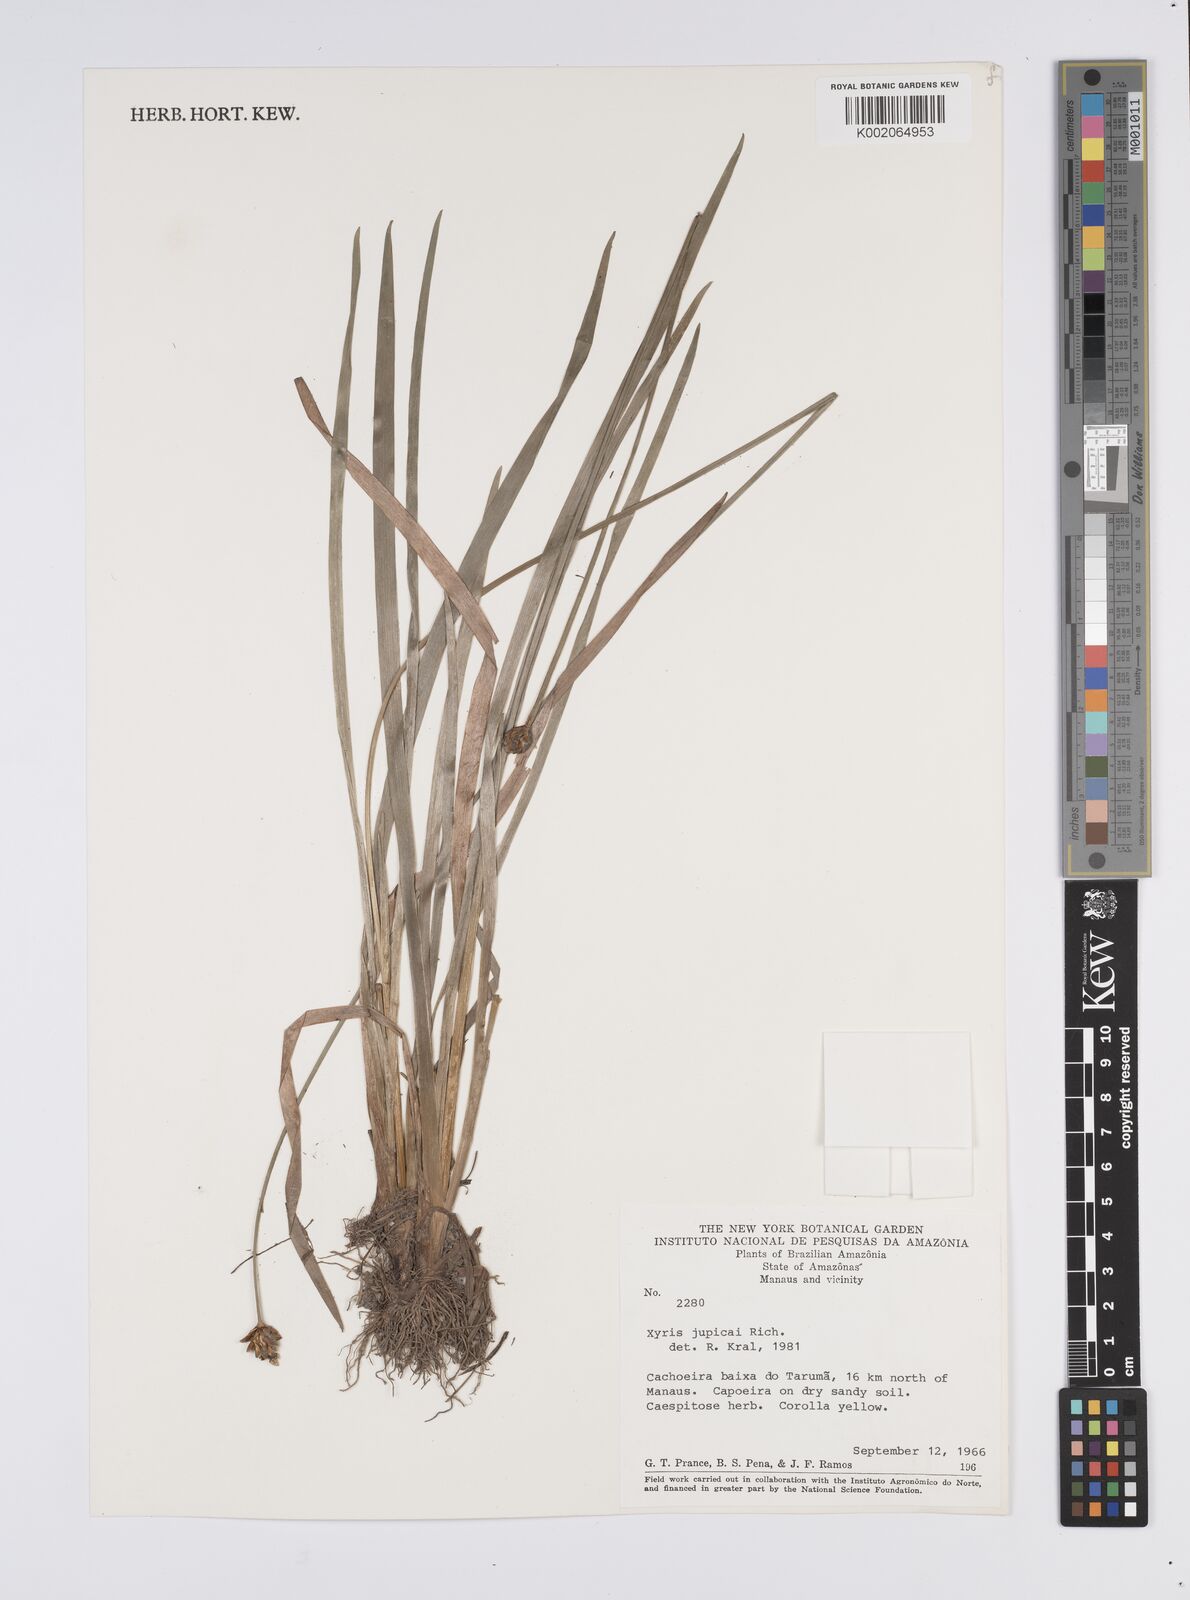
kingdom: Plantae
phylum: Tracheophyta
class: Liliopsida
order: Poales
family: Xyridaceae
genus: Xyris
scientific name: Xyris jupicai
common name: Richard's yelloweyed grass
